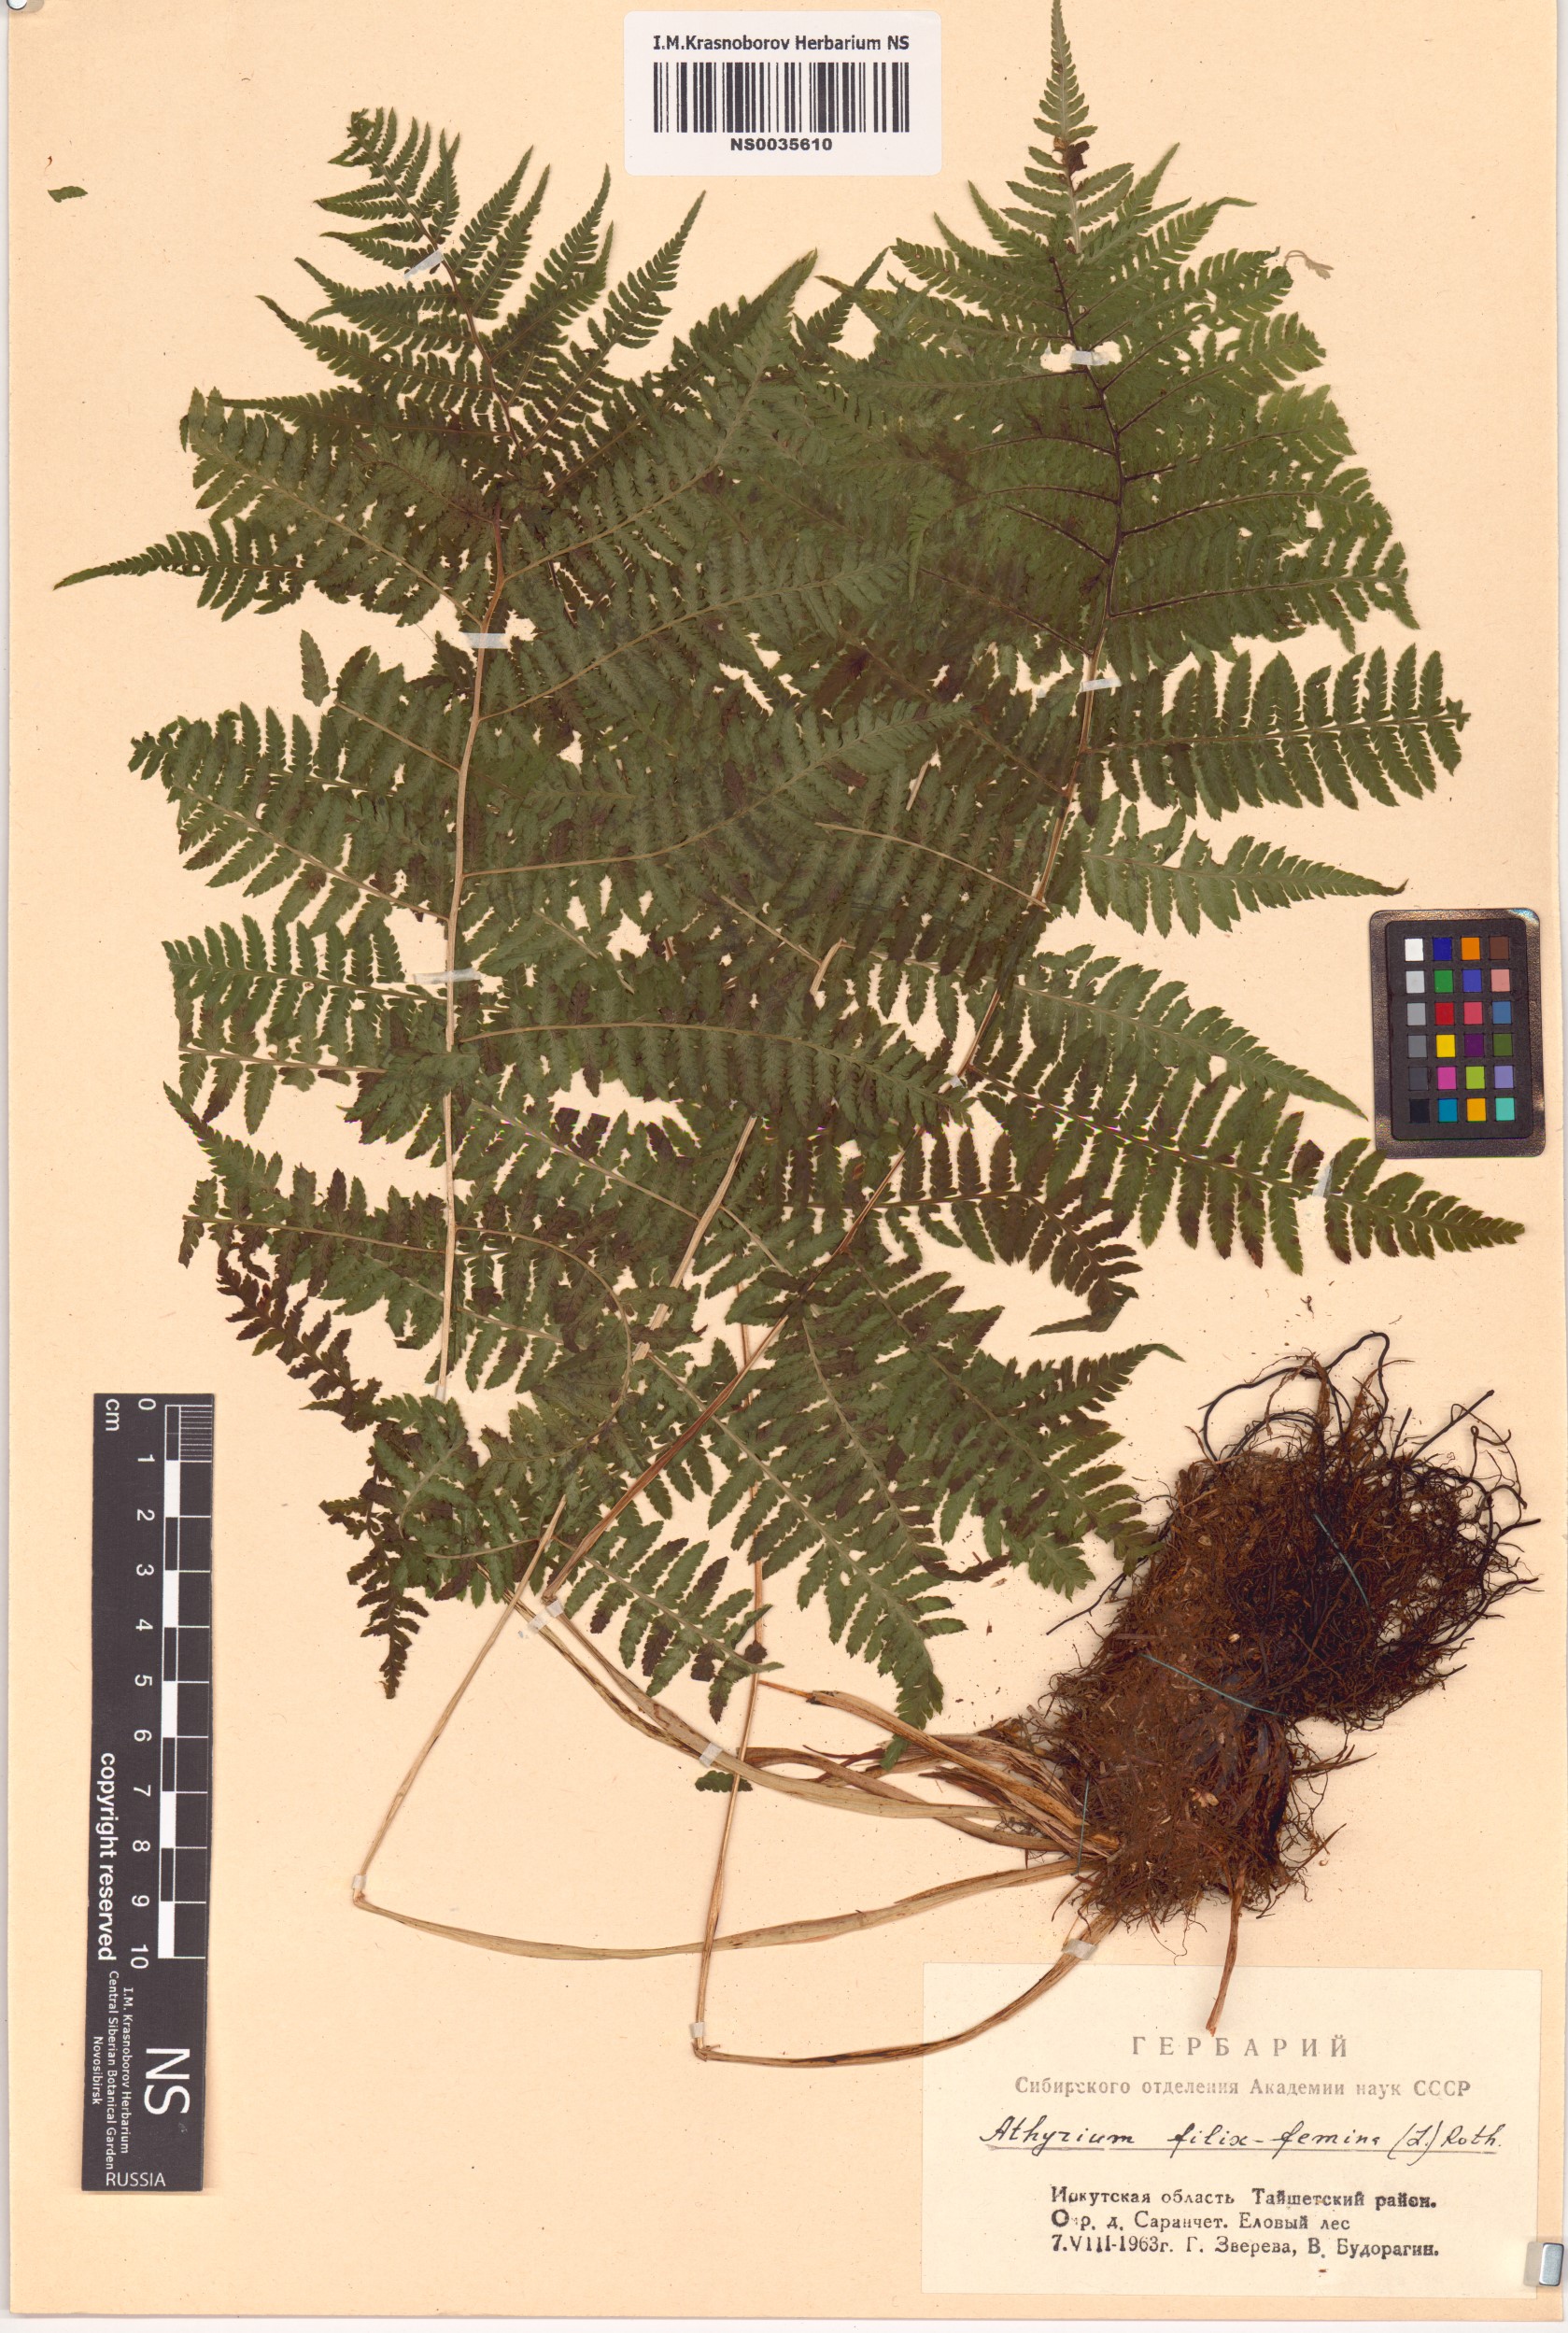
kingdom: Plantae
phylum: Tracheophyta
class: Polypodiopsida
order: Polypodiales
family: Athyriaceae
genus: Athyrium
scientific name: Athyrium filix-femina
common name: Lady fern
